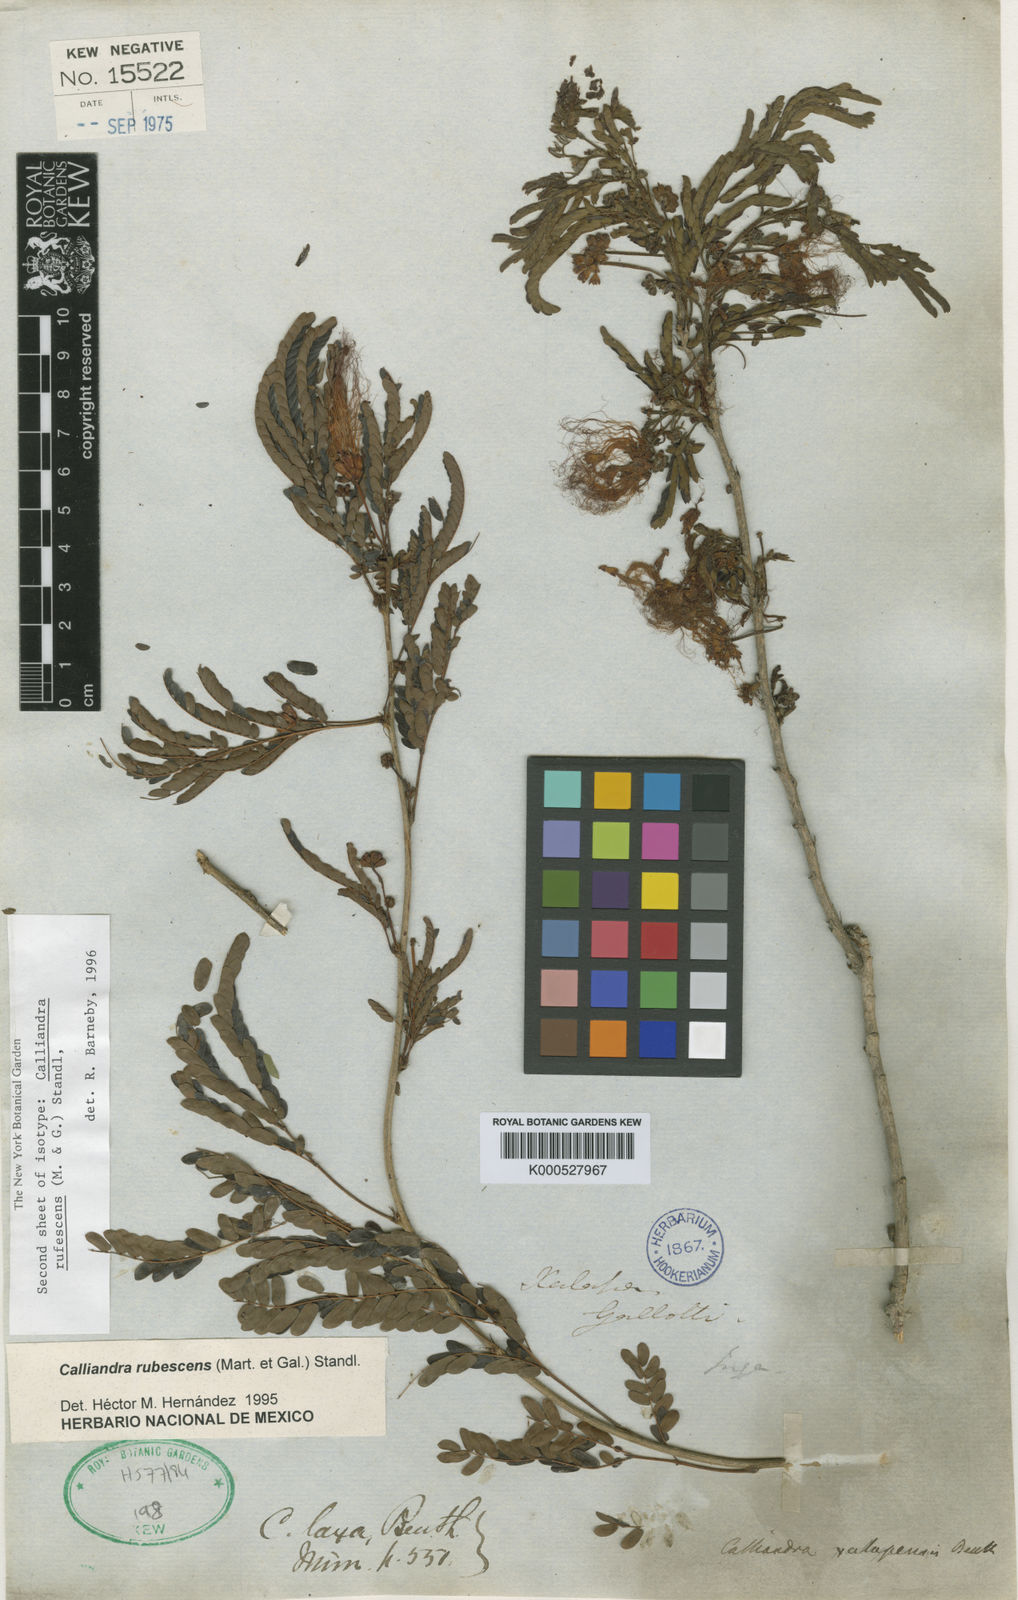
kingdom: Plantae
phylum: Tracheophyta
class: Magnoliopsida
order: Fabales
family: Fabaceae
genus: Calliandra
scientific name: Calliandra rubescens
